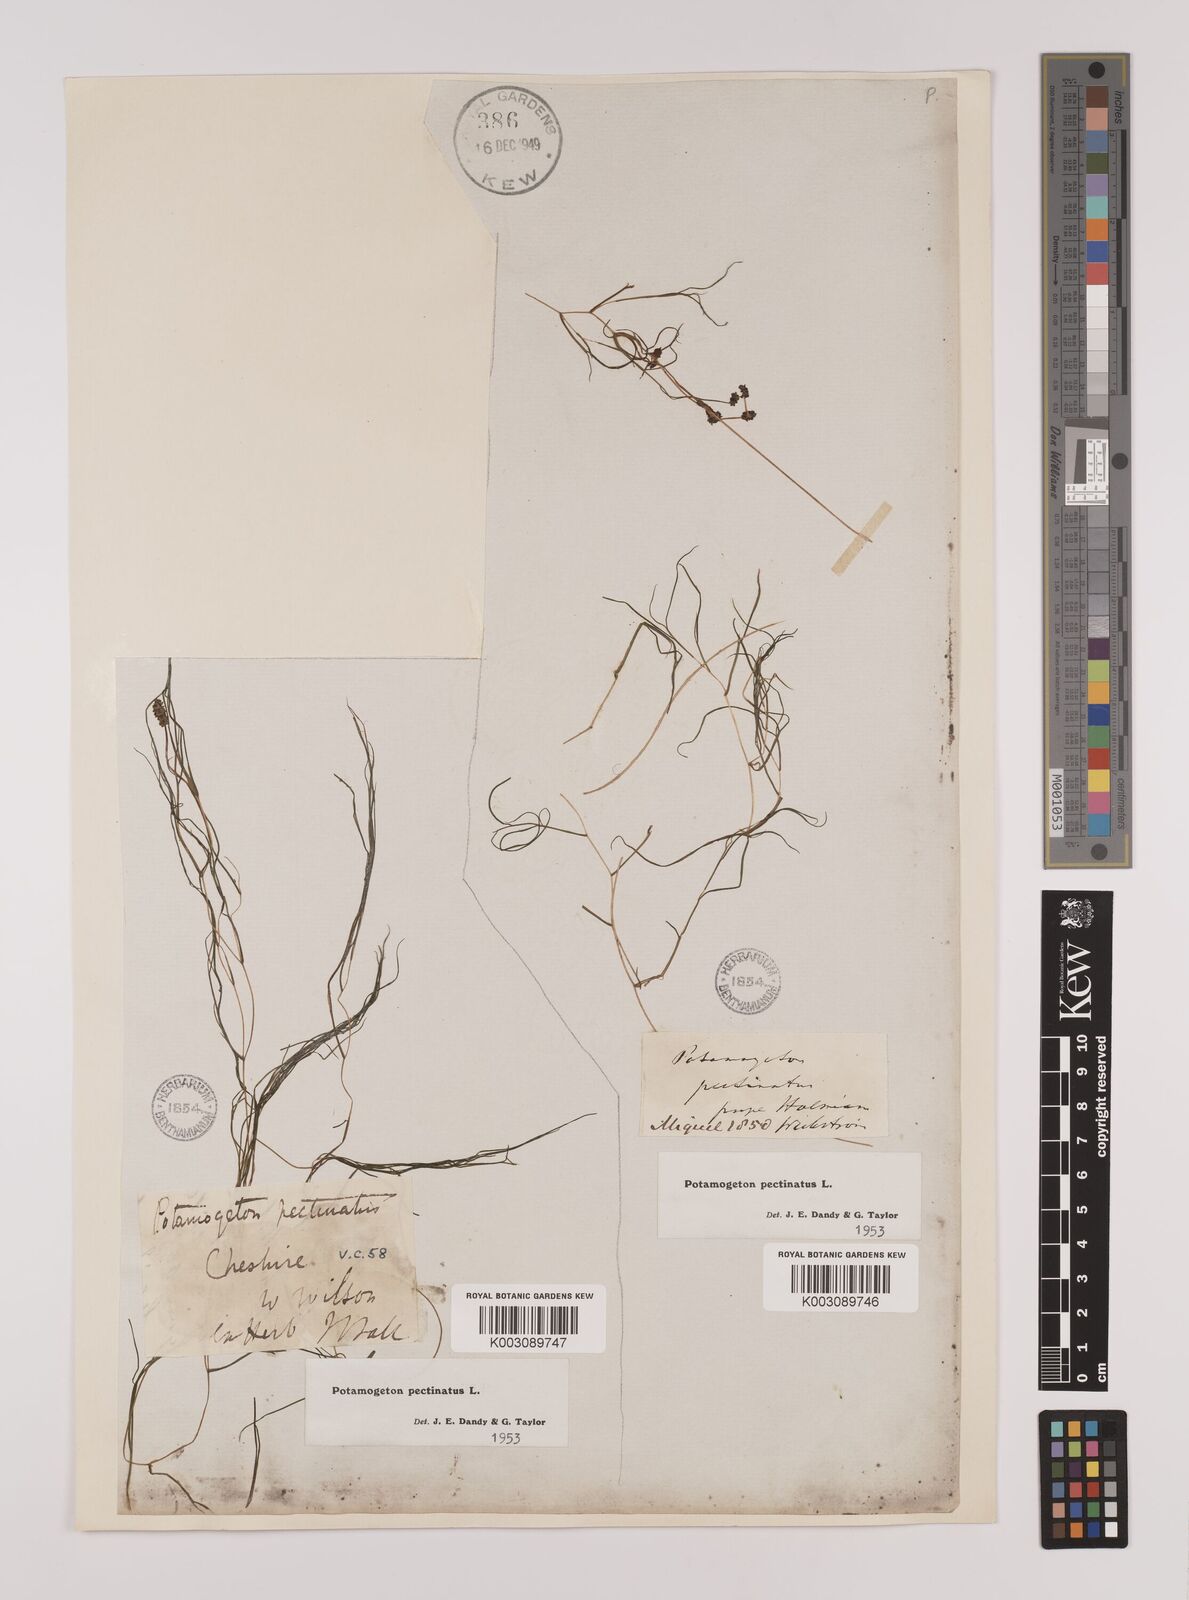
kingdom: Plantae
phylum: Tracheophyta
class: Liliopsida
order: Alismatales
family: Potamogetonaceae
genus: Stuckenia
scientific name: Stuckenia pectinata
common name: Sago pondweed
